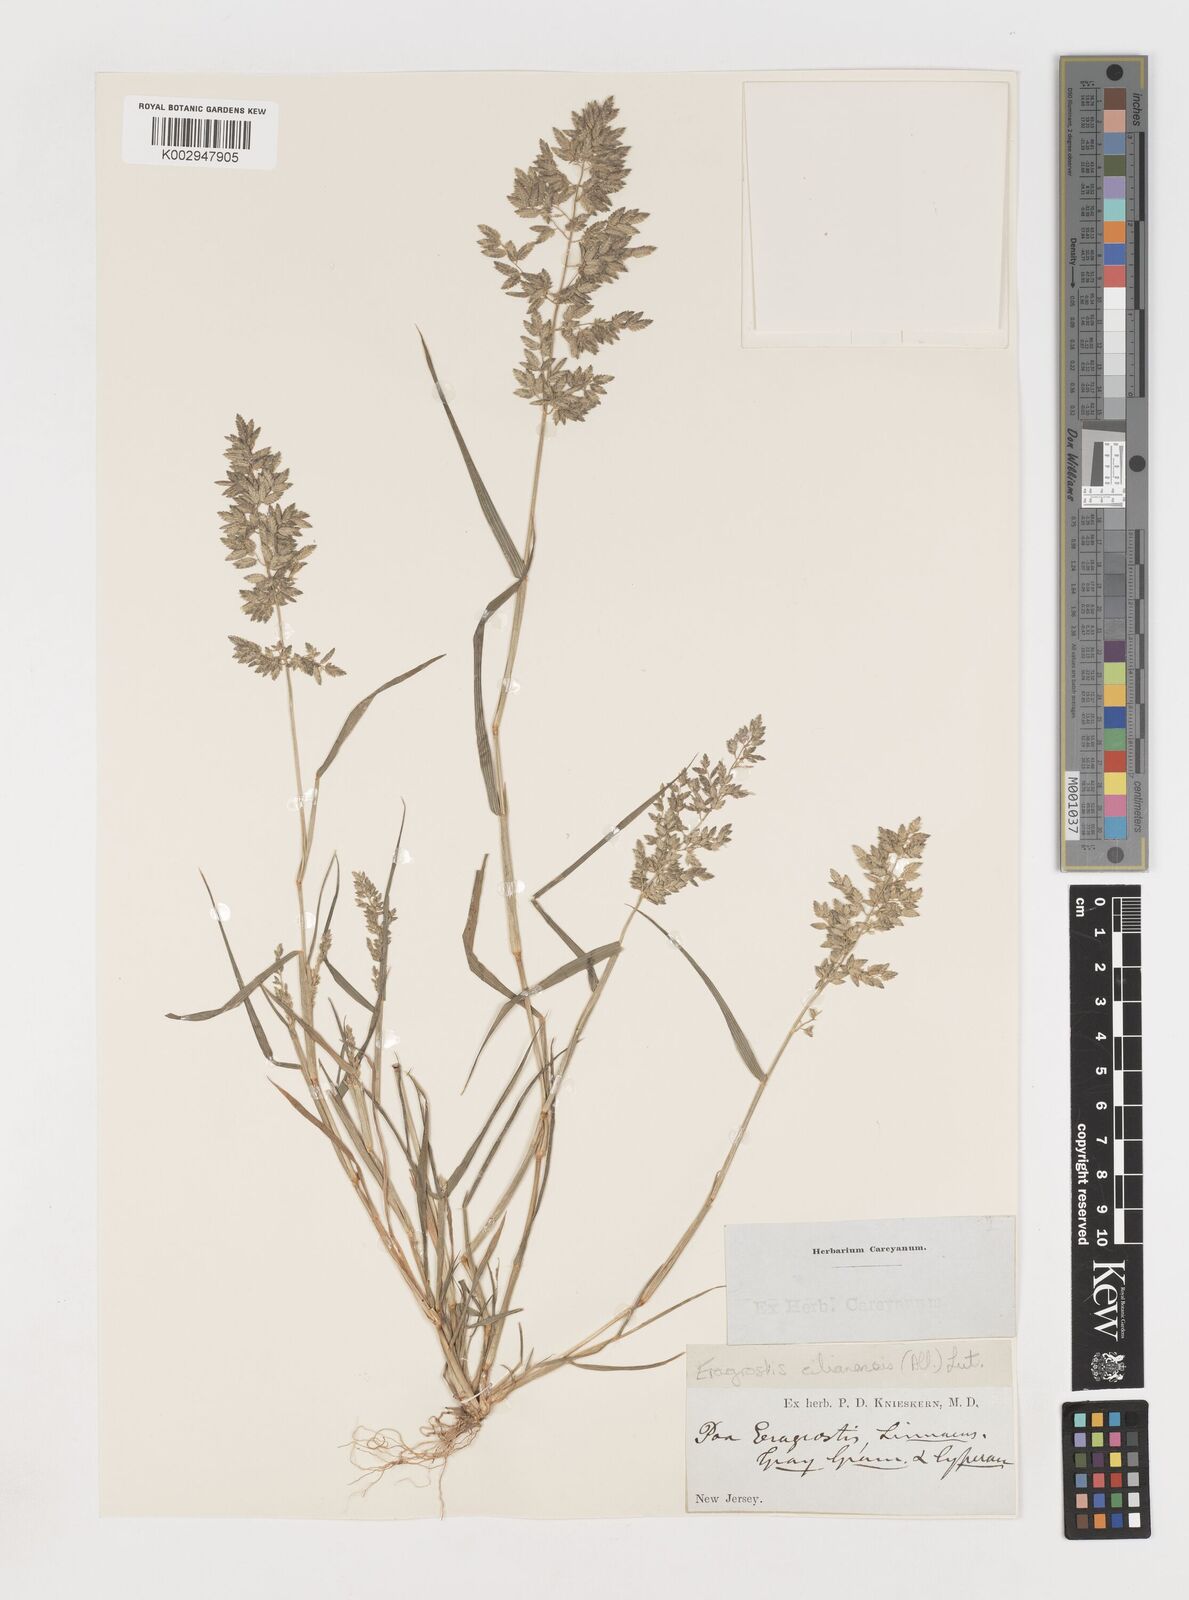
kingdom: Plantae
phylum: Tracheophyta
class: Liliopsida
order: Poales
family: Poaceae
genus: Eragrostis
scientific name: Eragrostis
